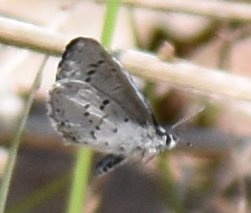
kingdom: Animalia
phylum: Arthropoda
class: Insecta
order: Lepidoptera
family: Lycaenidae
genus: Celastrina
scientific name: Celastrina
